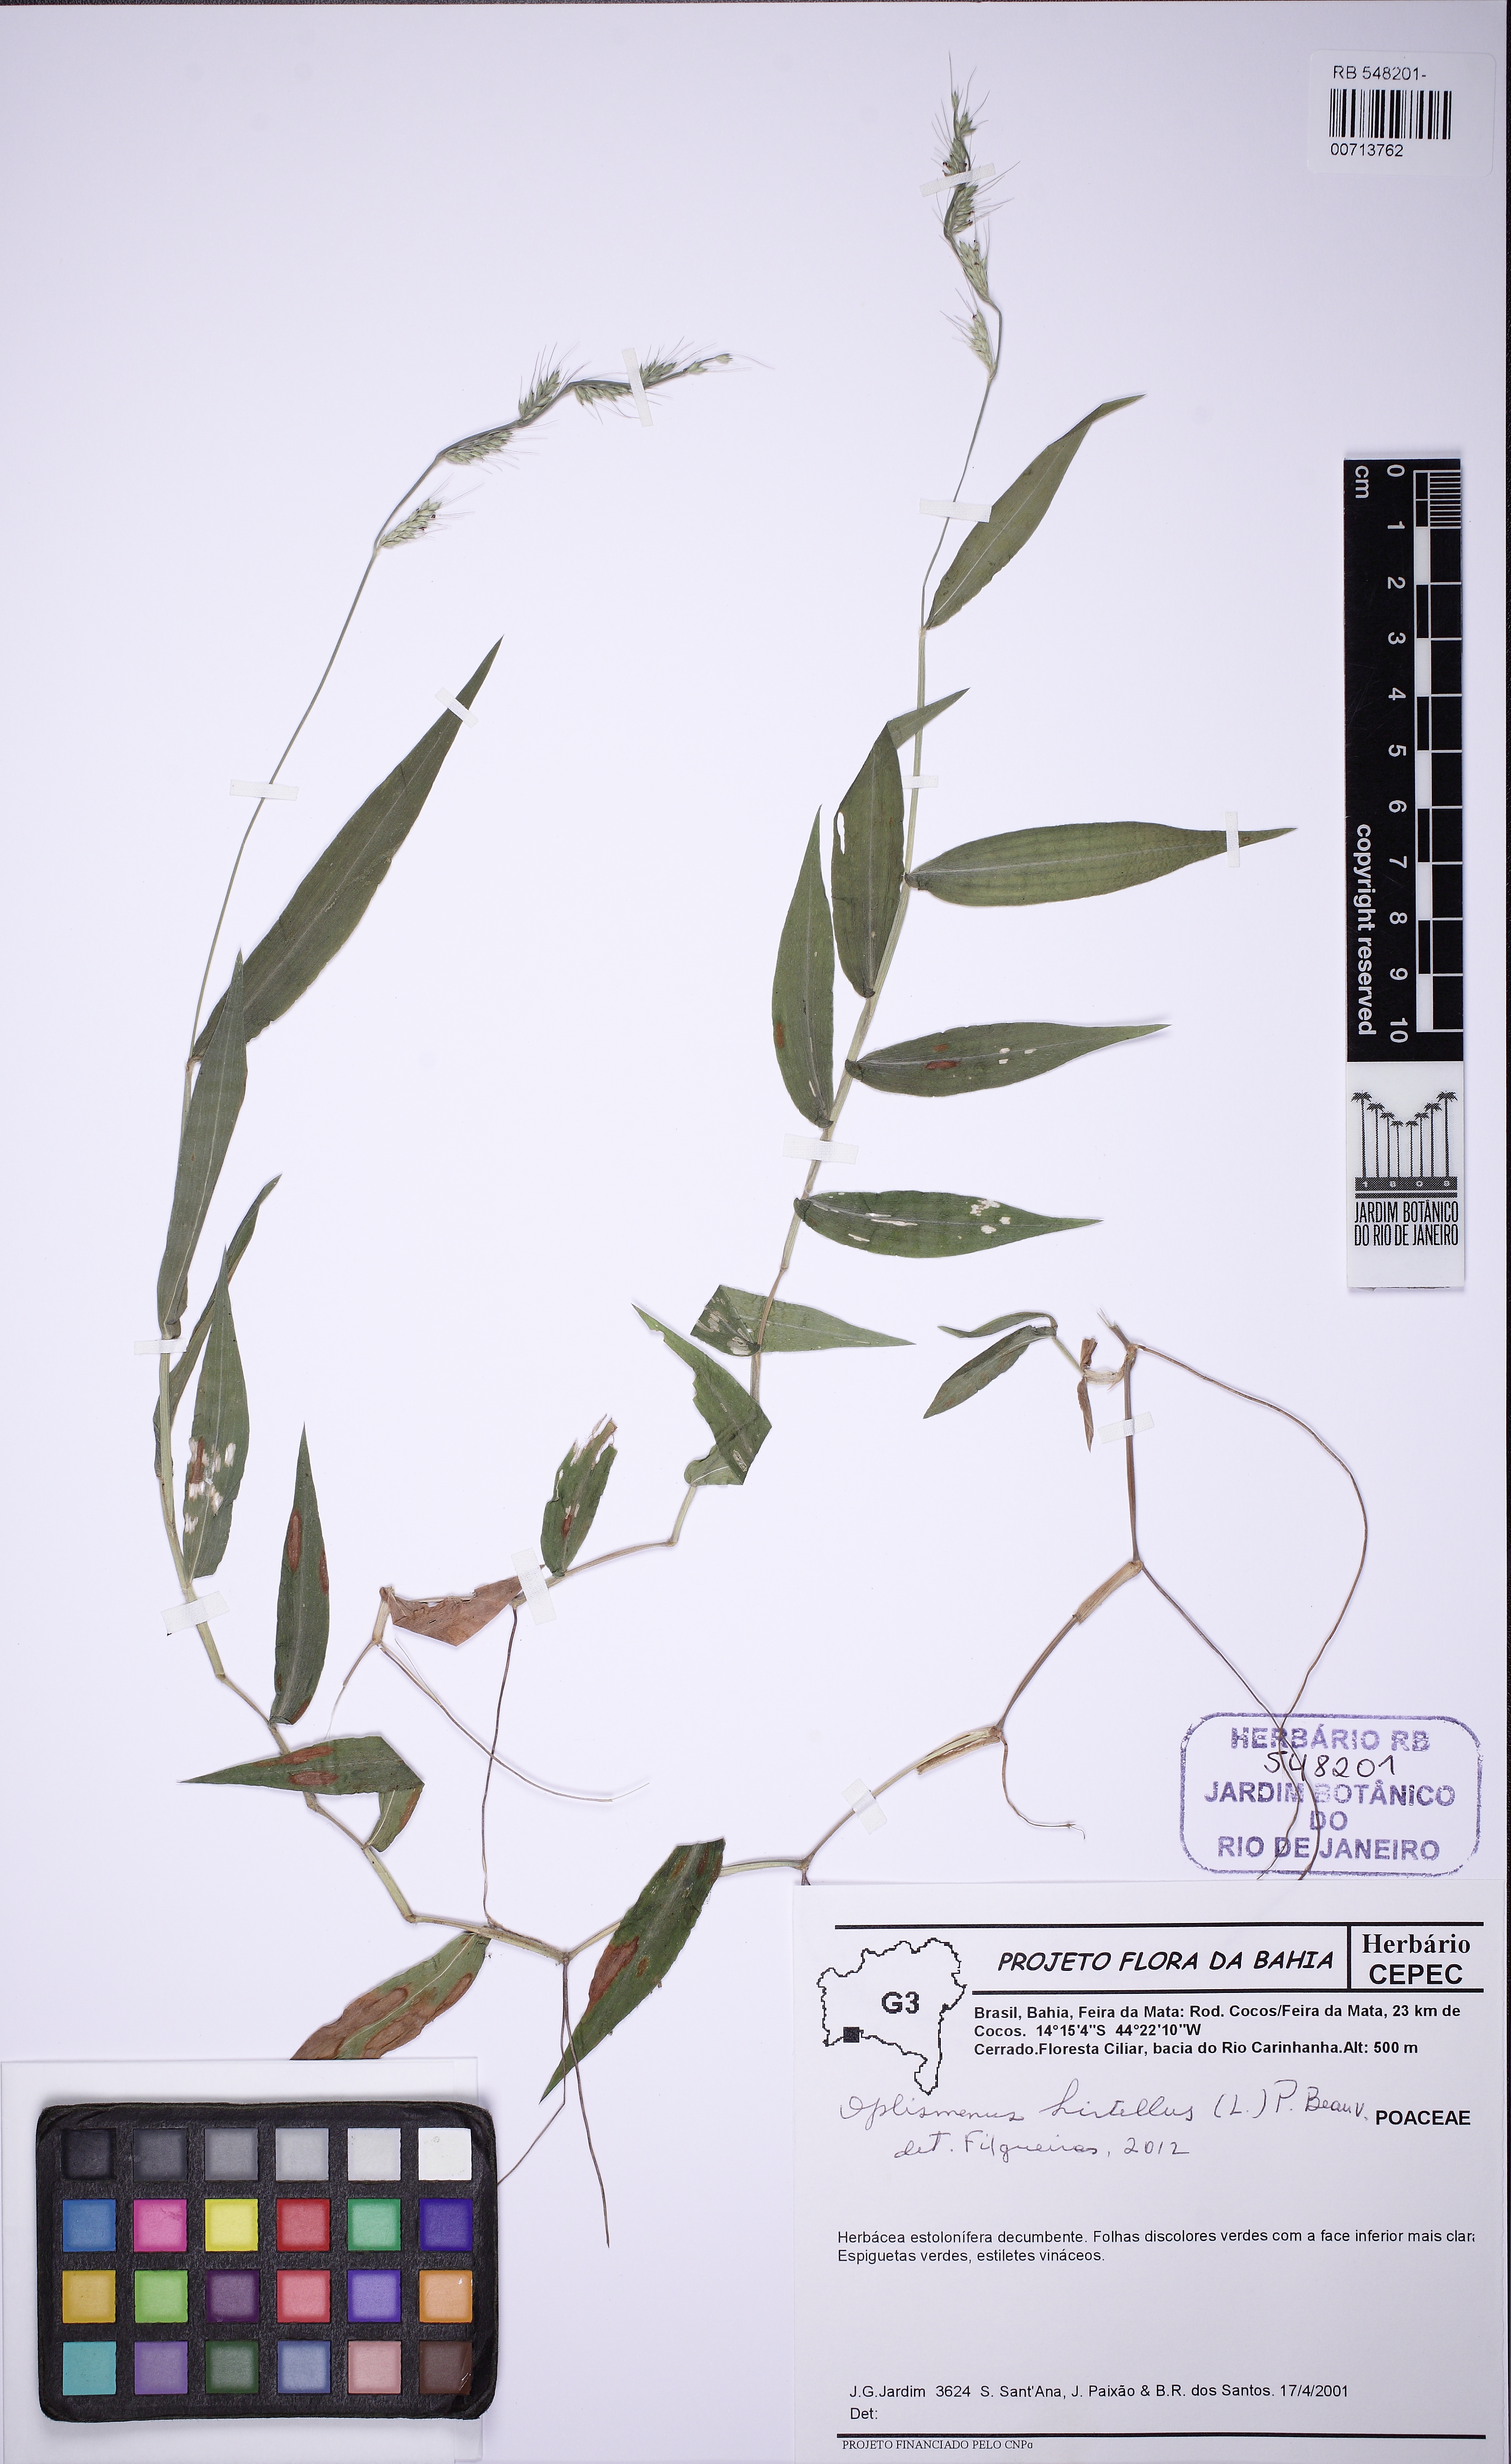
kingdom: Plantae
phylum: Tracheophyta
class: Liliopsida
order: Poales
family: Poaceae
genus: Oplismenus
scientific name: Oplismenus hirtellus
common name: Basketgrass
